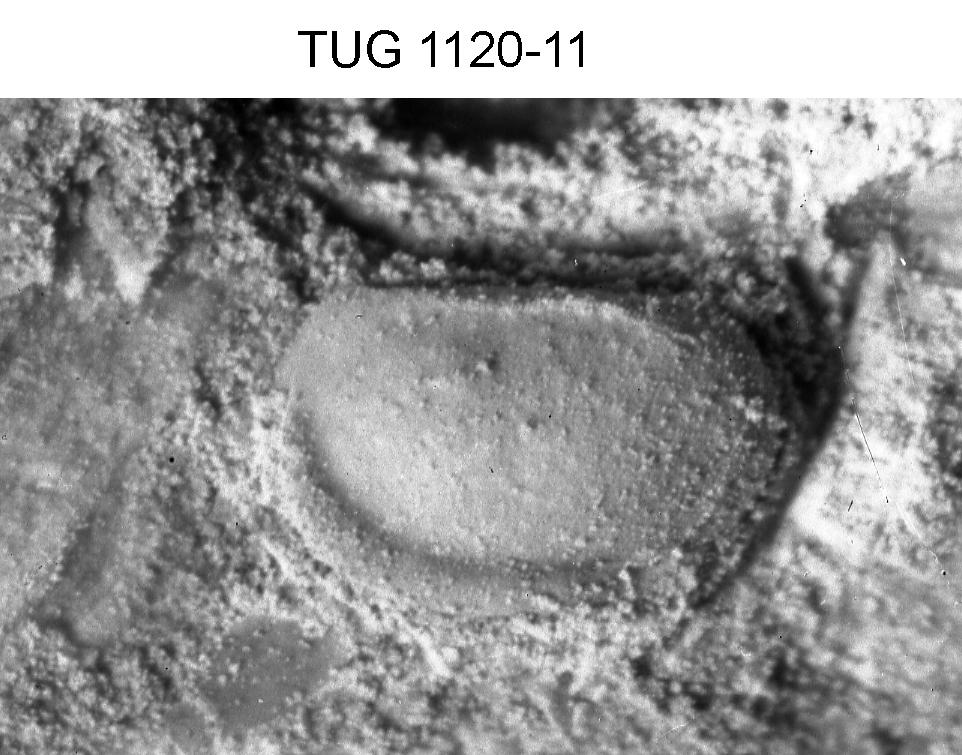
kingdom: Animalia
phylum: Arthropoda
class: Ostracoda
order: Palaeocopida
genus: Apatochilina
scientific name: Apatochilina
